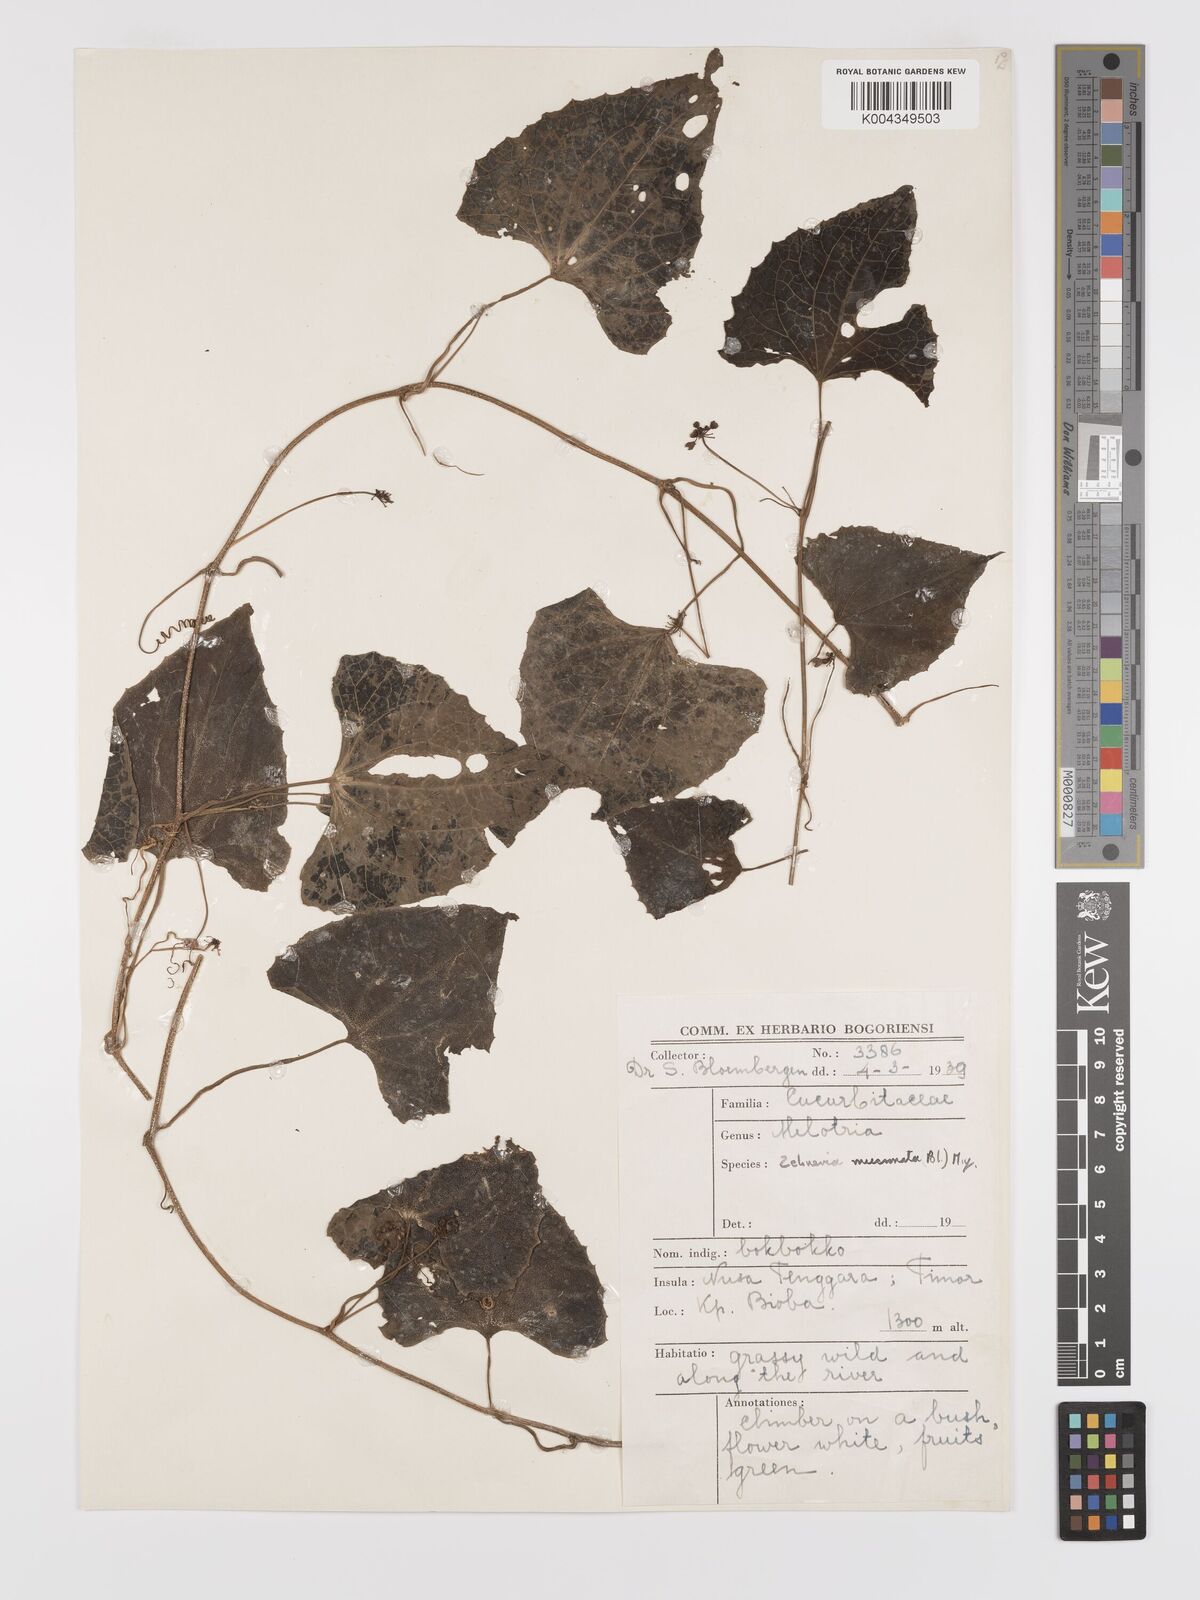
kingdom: Plantae
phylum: Tracheophyta
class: Magnoliopsida
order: Cucurbitales
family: Cucurbitaceae
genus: Zehneria
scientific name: Zehneria mucronata
